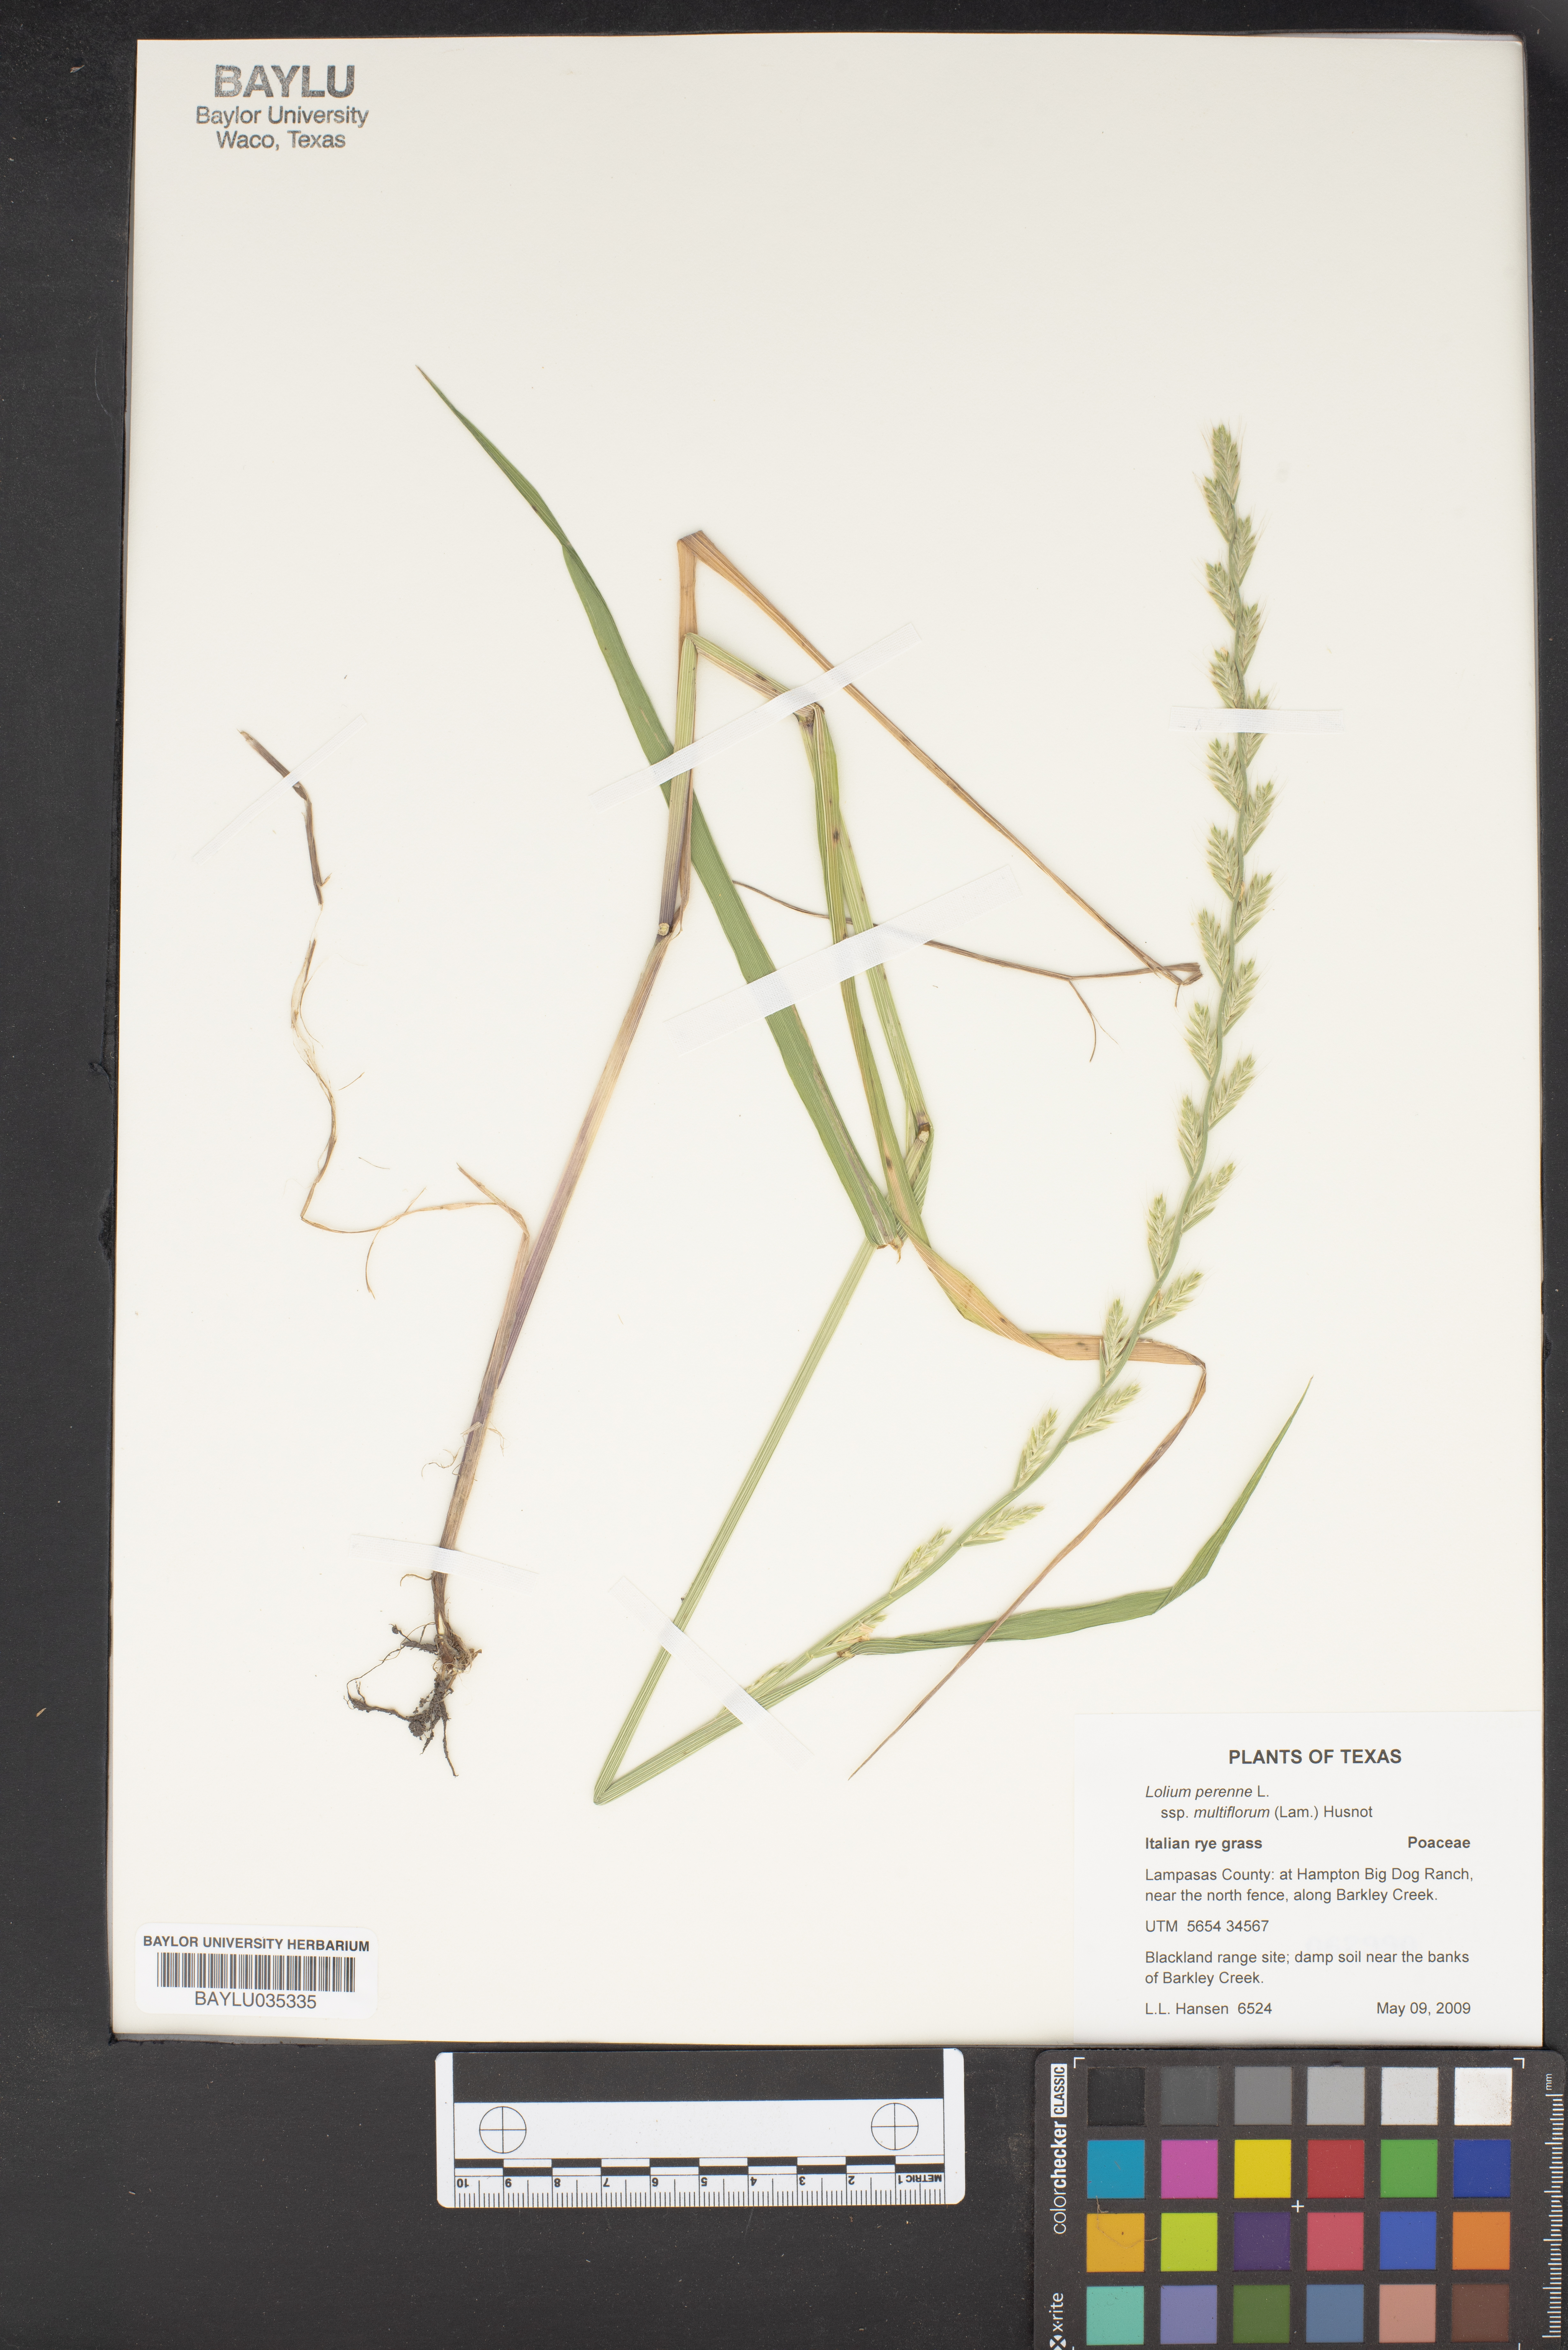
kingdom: Plantae
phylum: Tracheophyta
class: Liliopsida
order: Poales
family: Poaceae
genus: Lolium
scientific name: Lolium multiflorum
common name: Annual ryegrass
